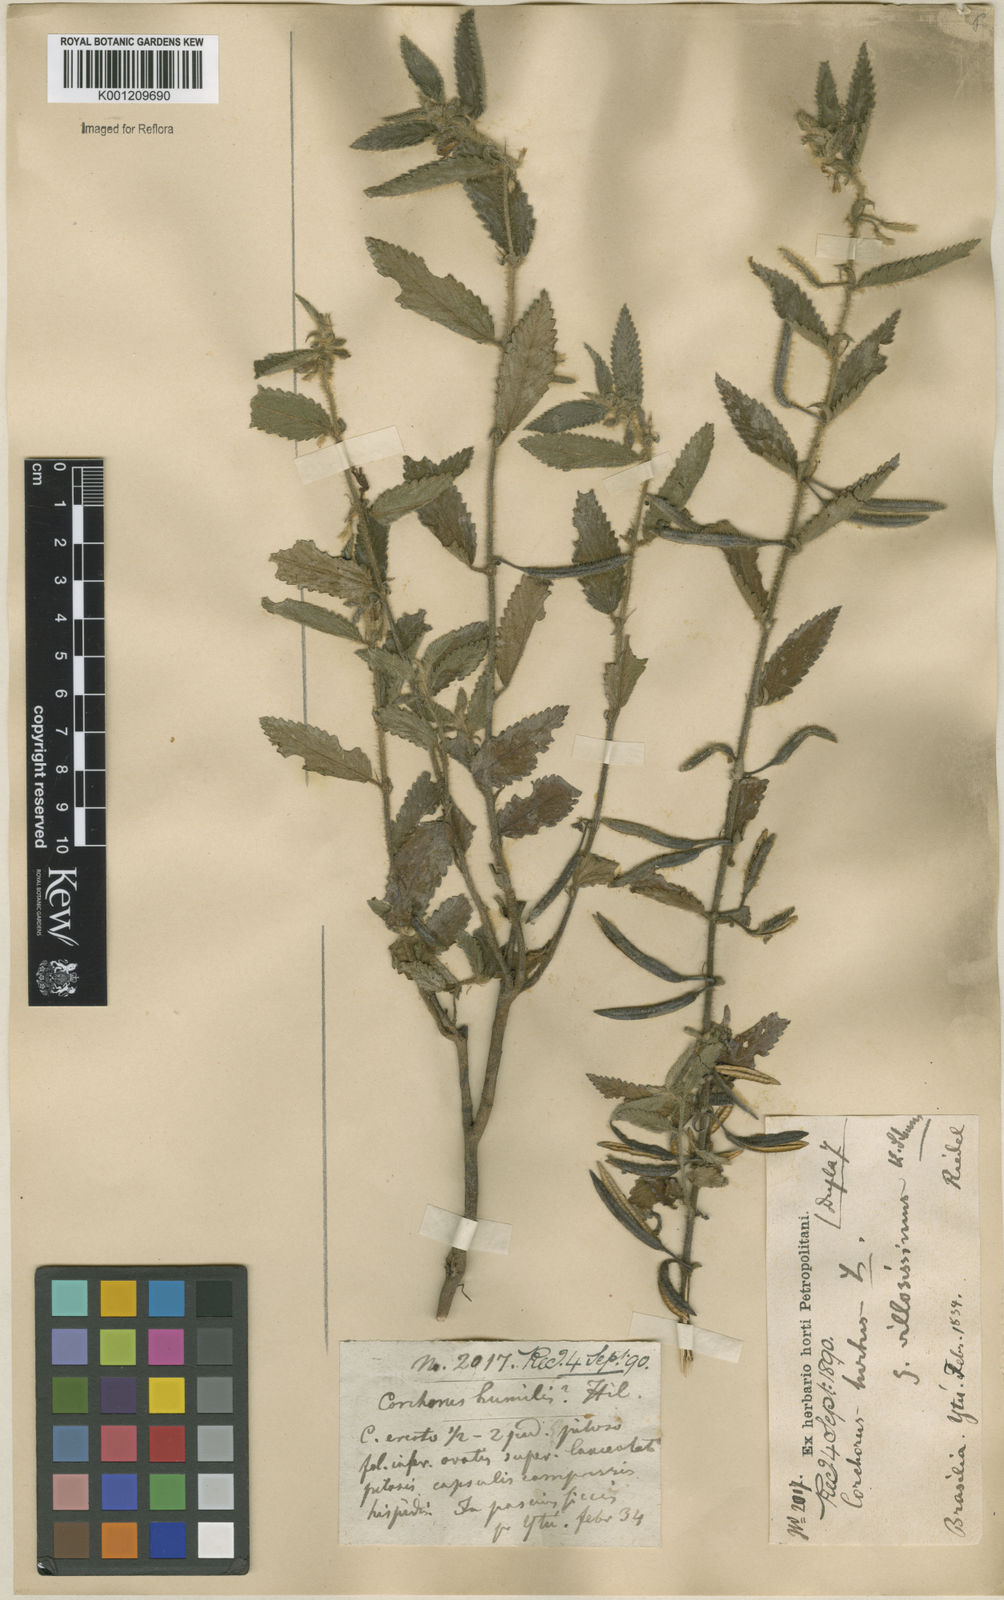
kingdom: Plantae
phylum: Tracheophyta
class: Magnoliopsida
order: Malvales
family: Malvaceae
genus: Corchorus
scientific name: Corchorus hirtus
